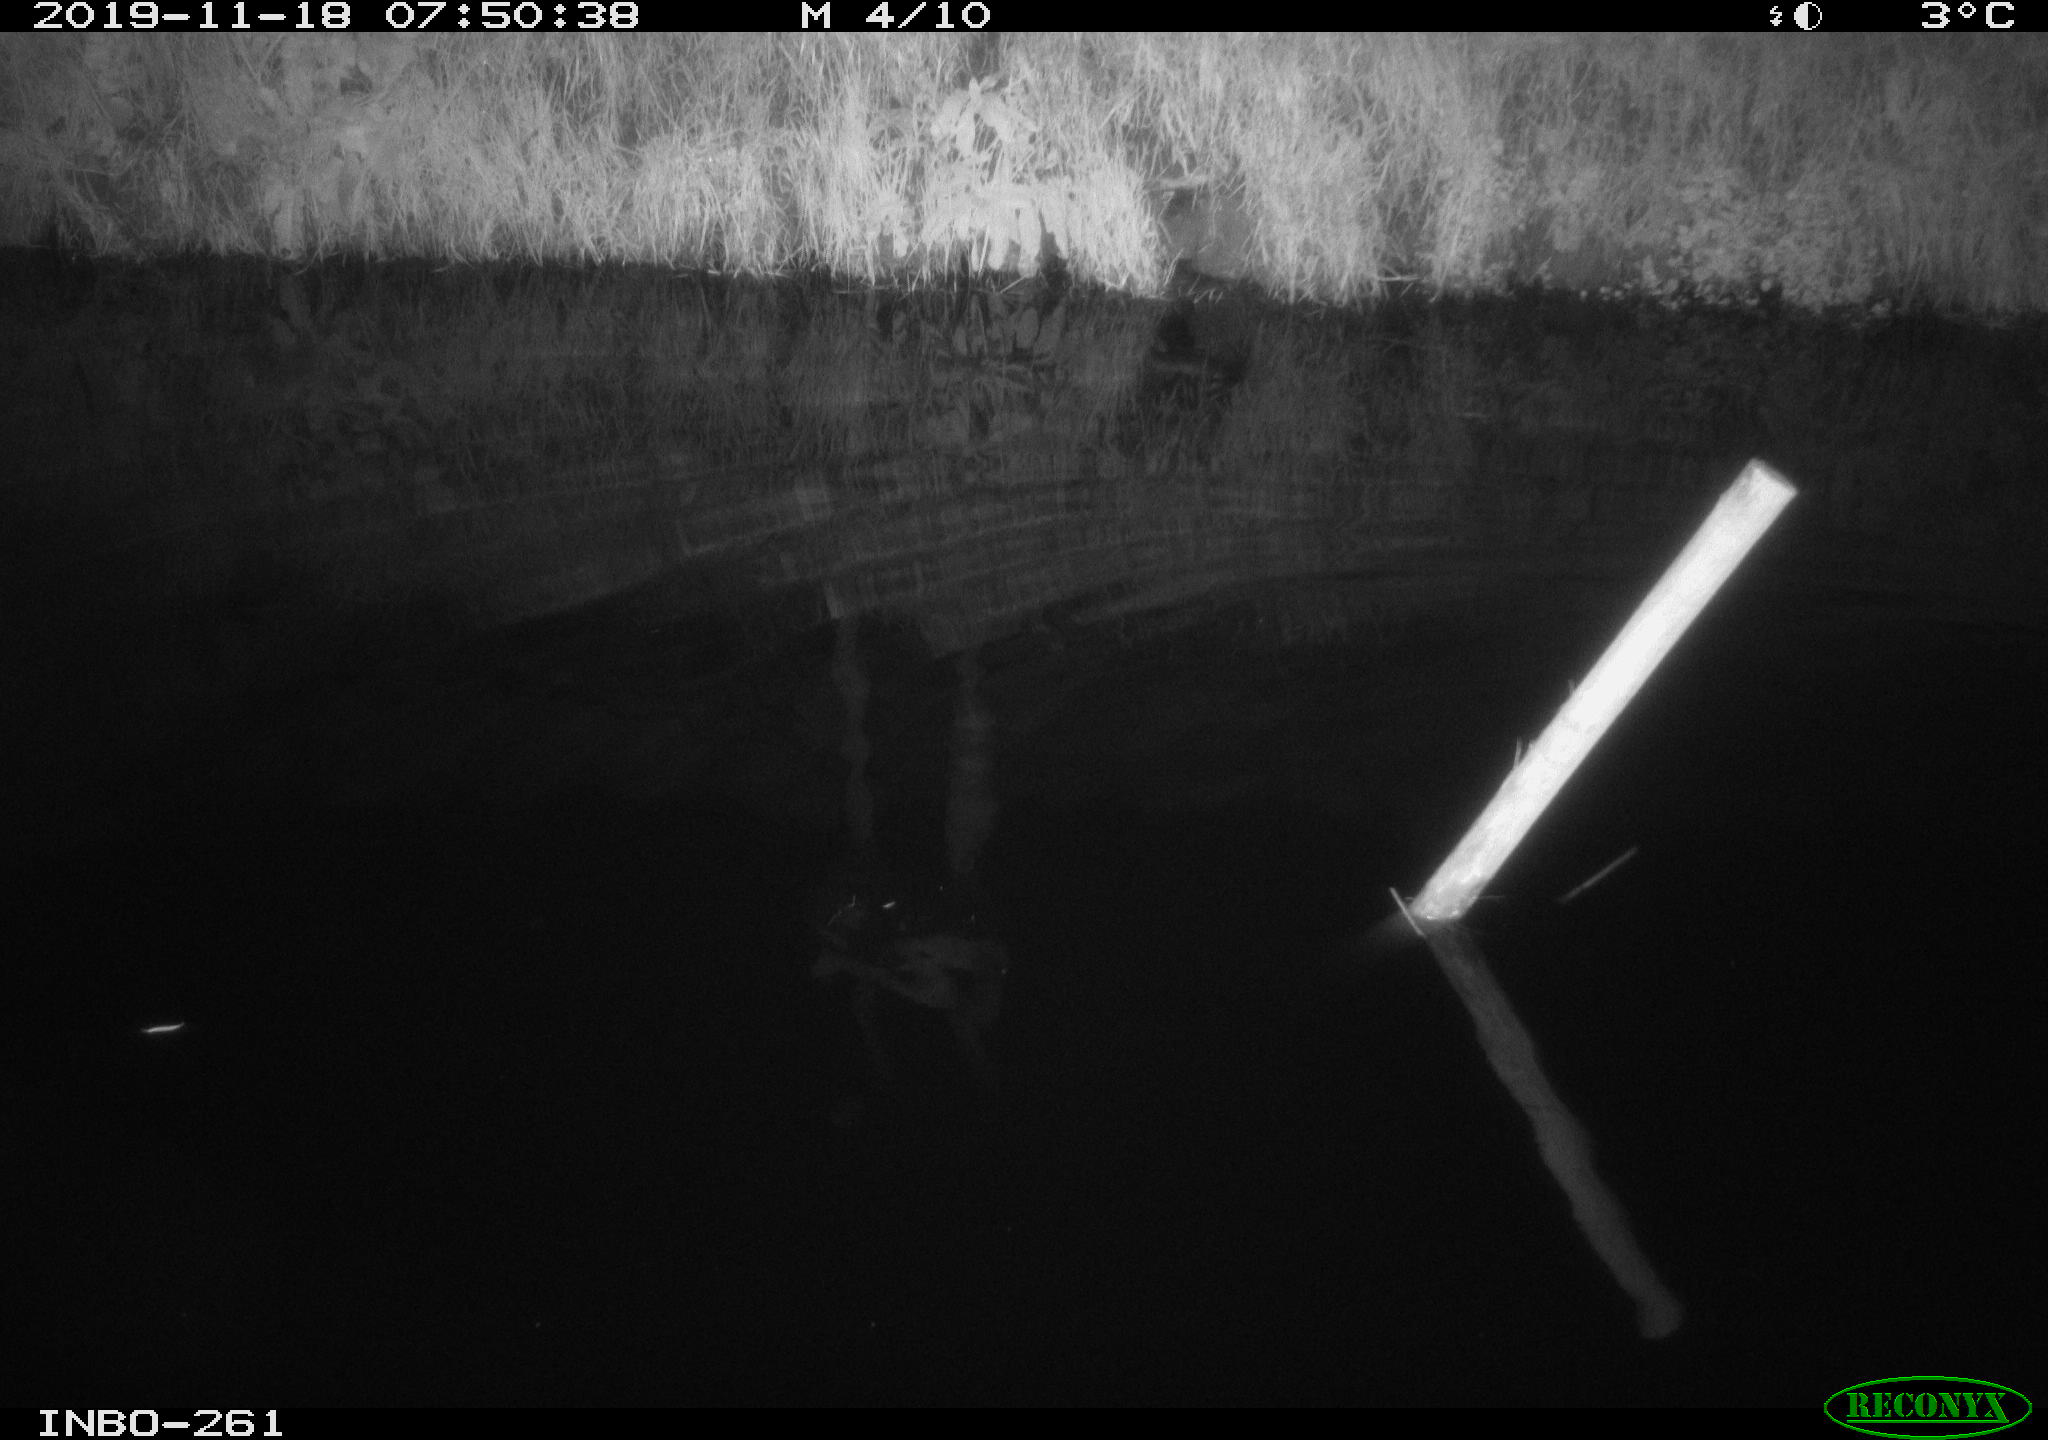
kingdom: Animalia
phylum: Chordata
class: Aves
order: Anseriformes
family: Anatidae
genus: Anas
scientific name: Anas platyrhynchos
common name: Mallard
